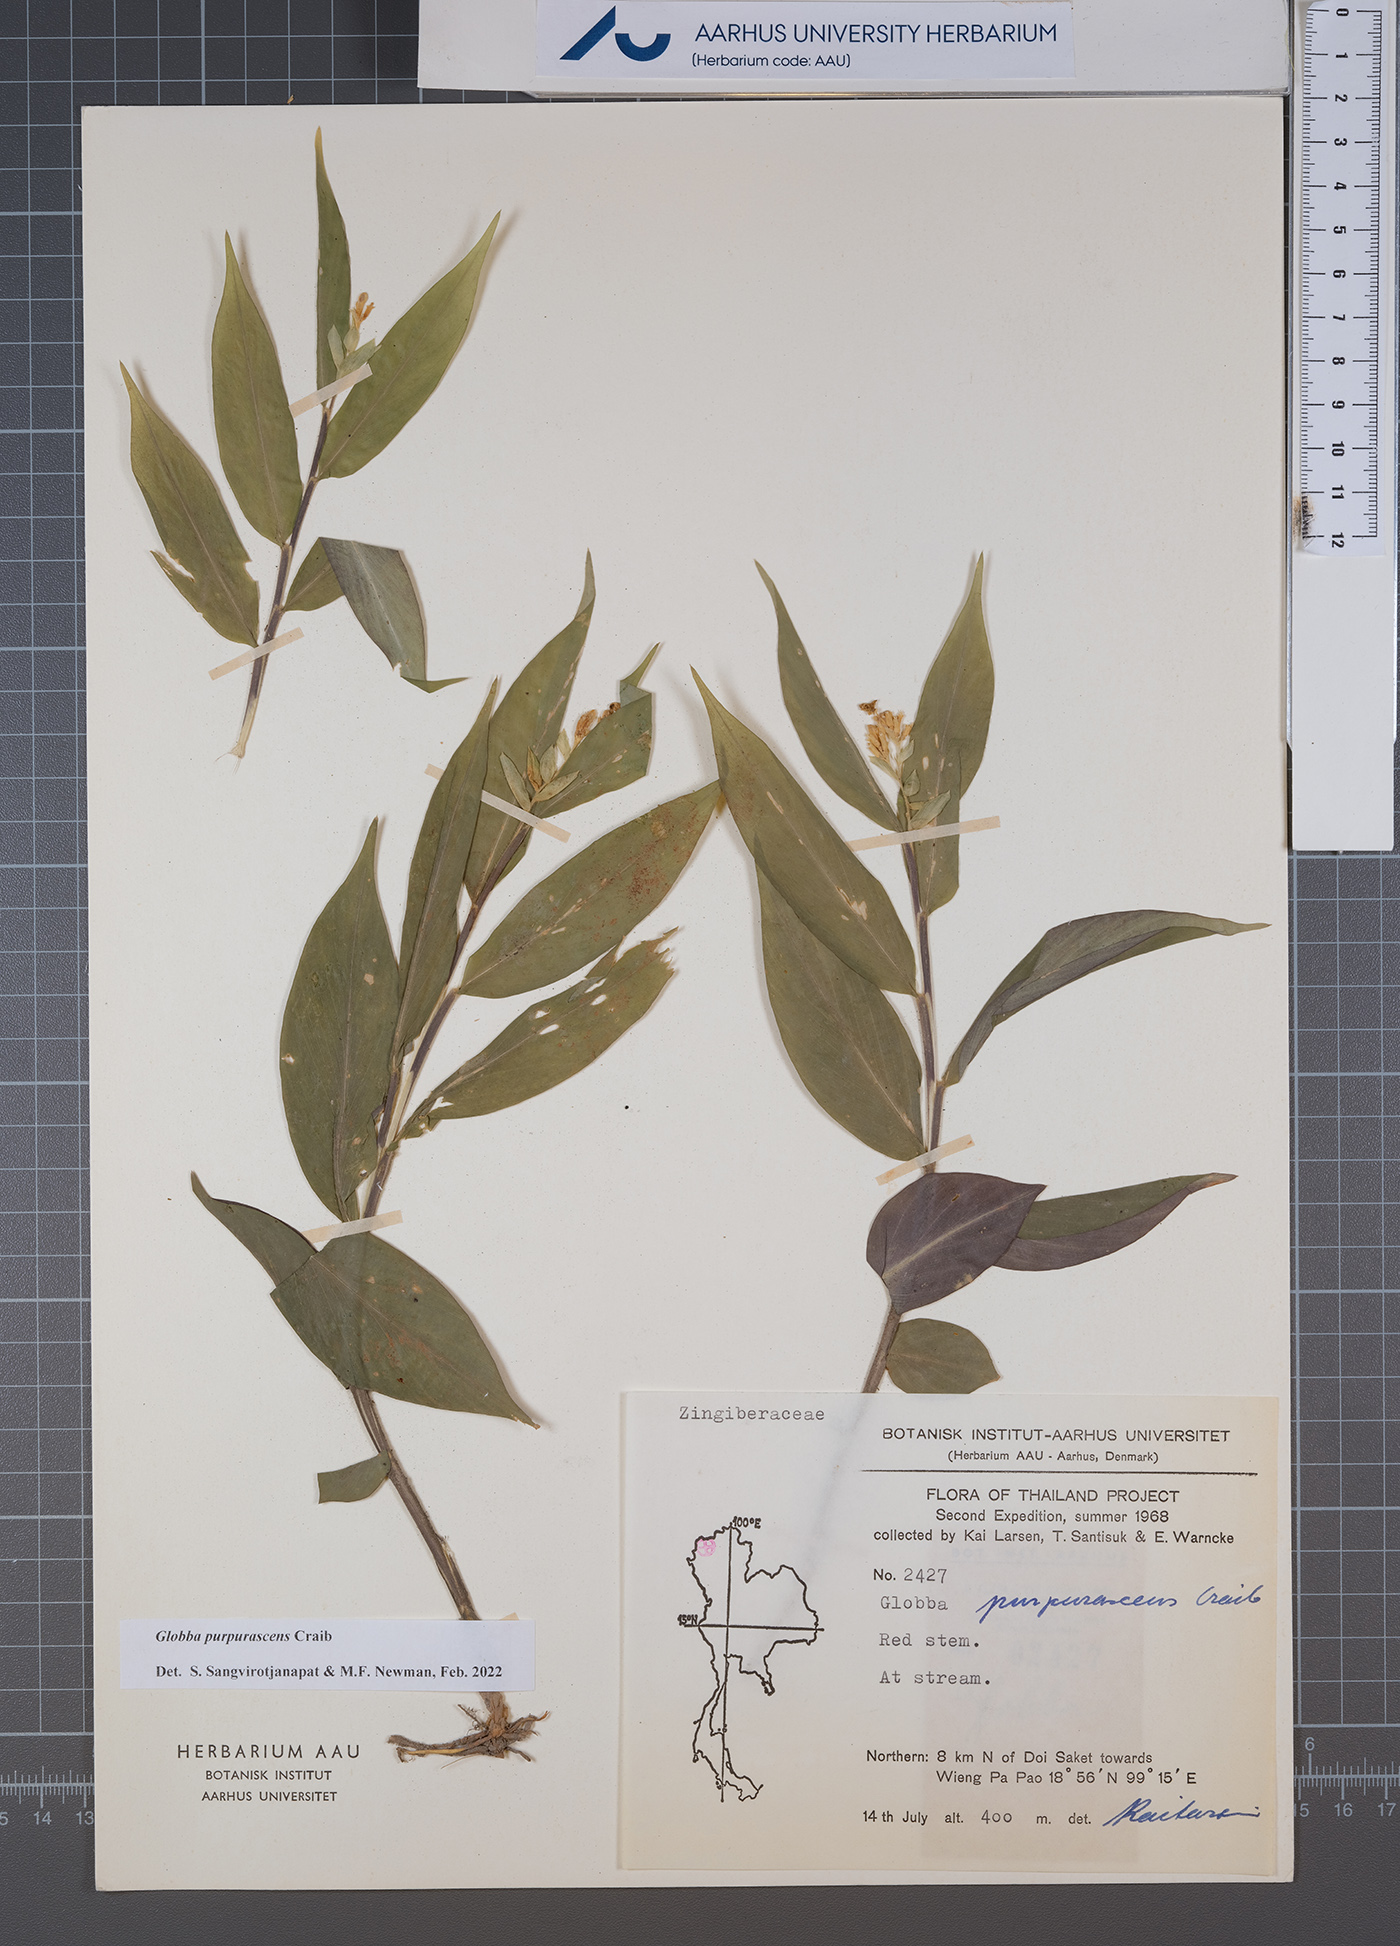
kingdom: Plantae
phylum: Tracheophyta
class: Liliopsida
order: Zingiberales
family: Zingiberaceae
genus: Globba
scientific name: Globba purpurascens
